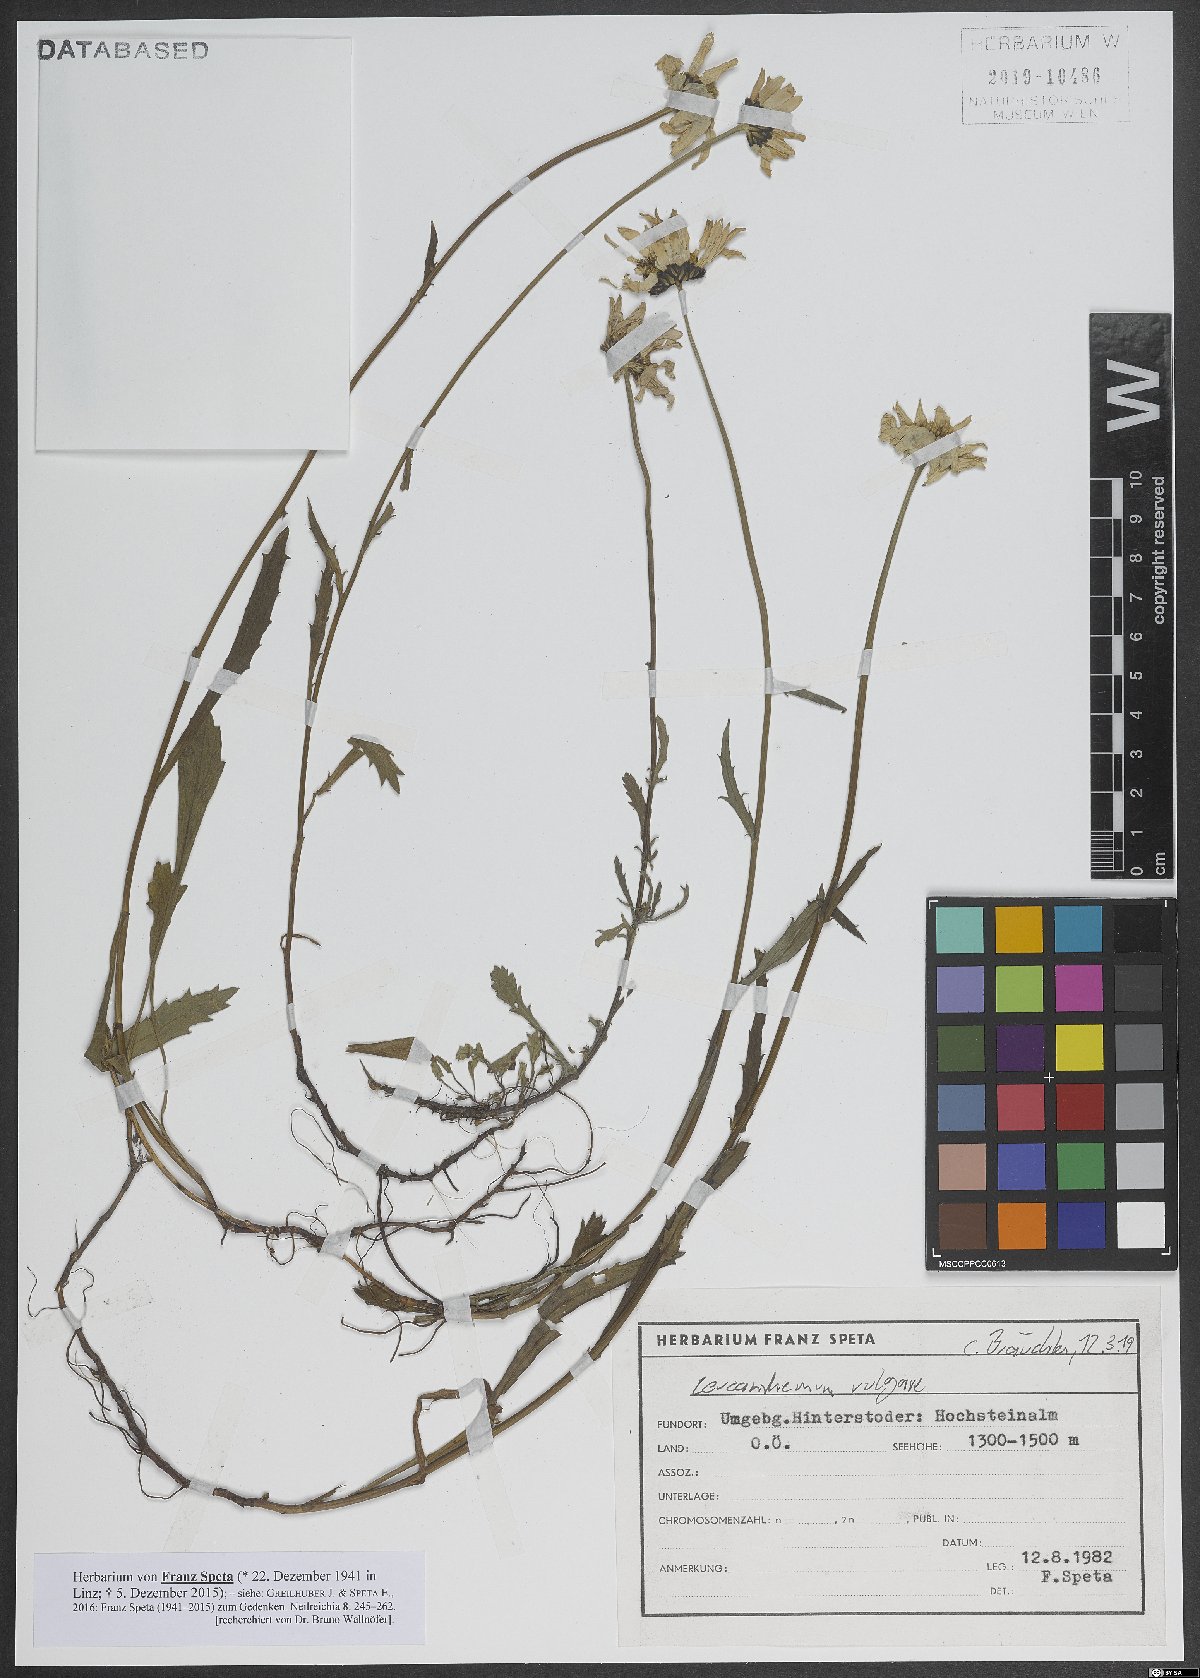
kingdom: Plantae
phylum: Tracheophyta
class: Magnoliopsida
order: Asterales
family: Asteraceae
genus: Leucanthemum
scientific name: Leucanthemum vulgare
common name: Oxeye daisy
